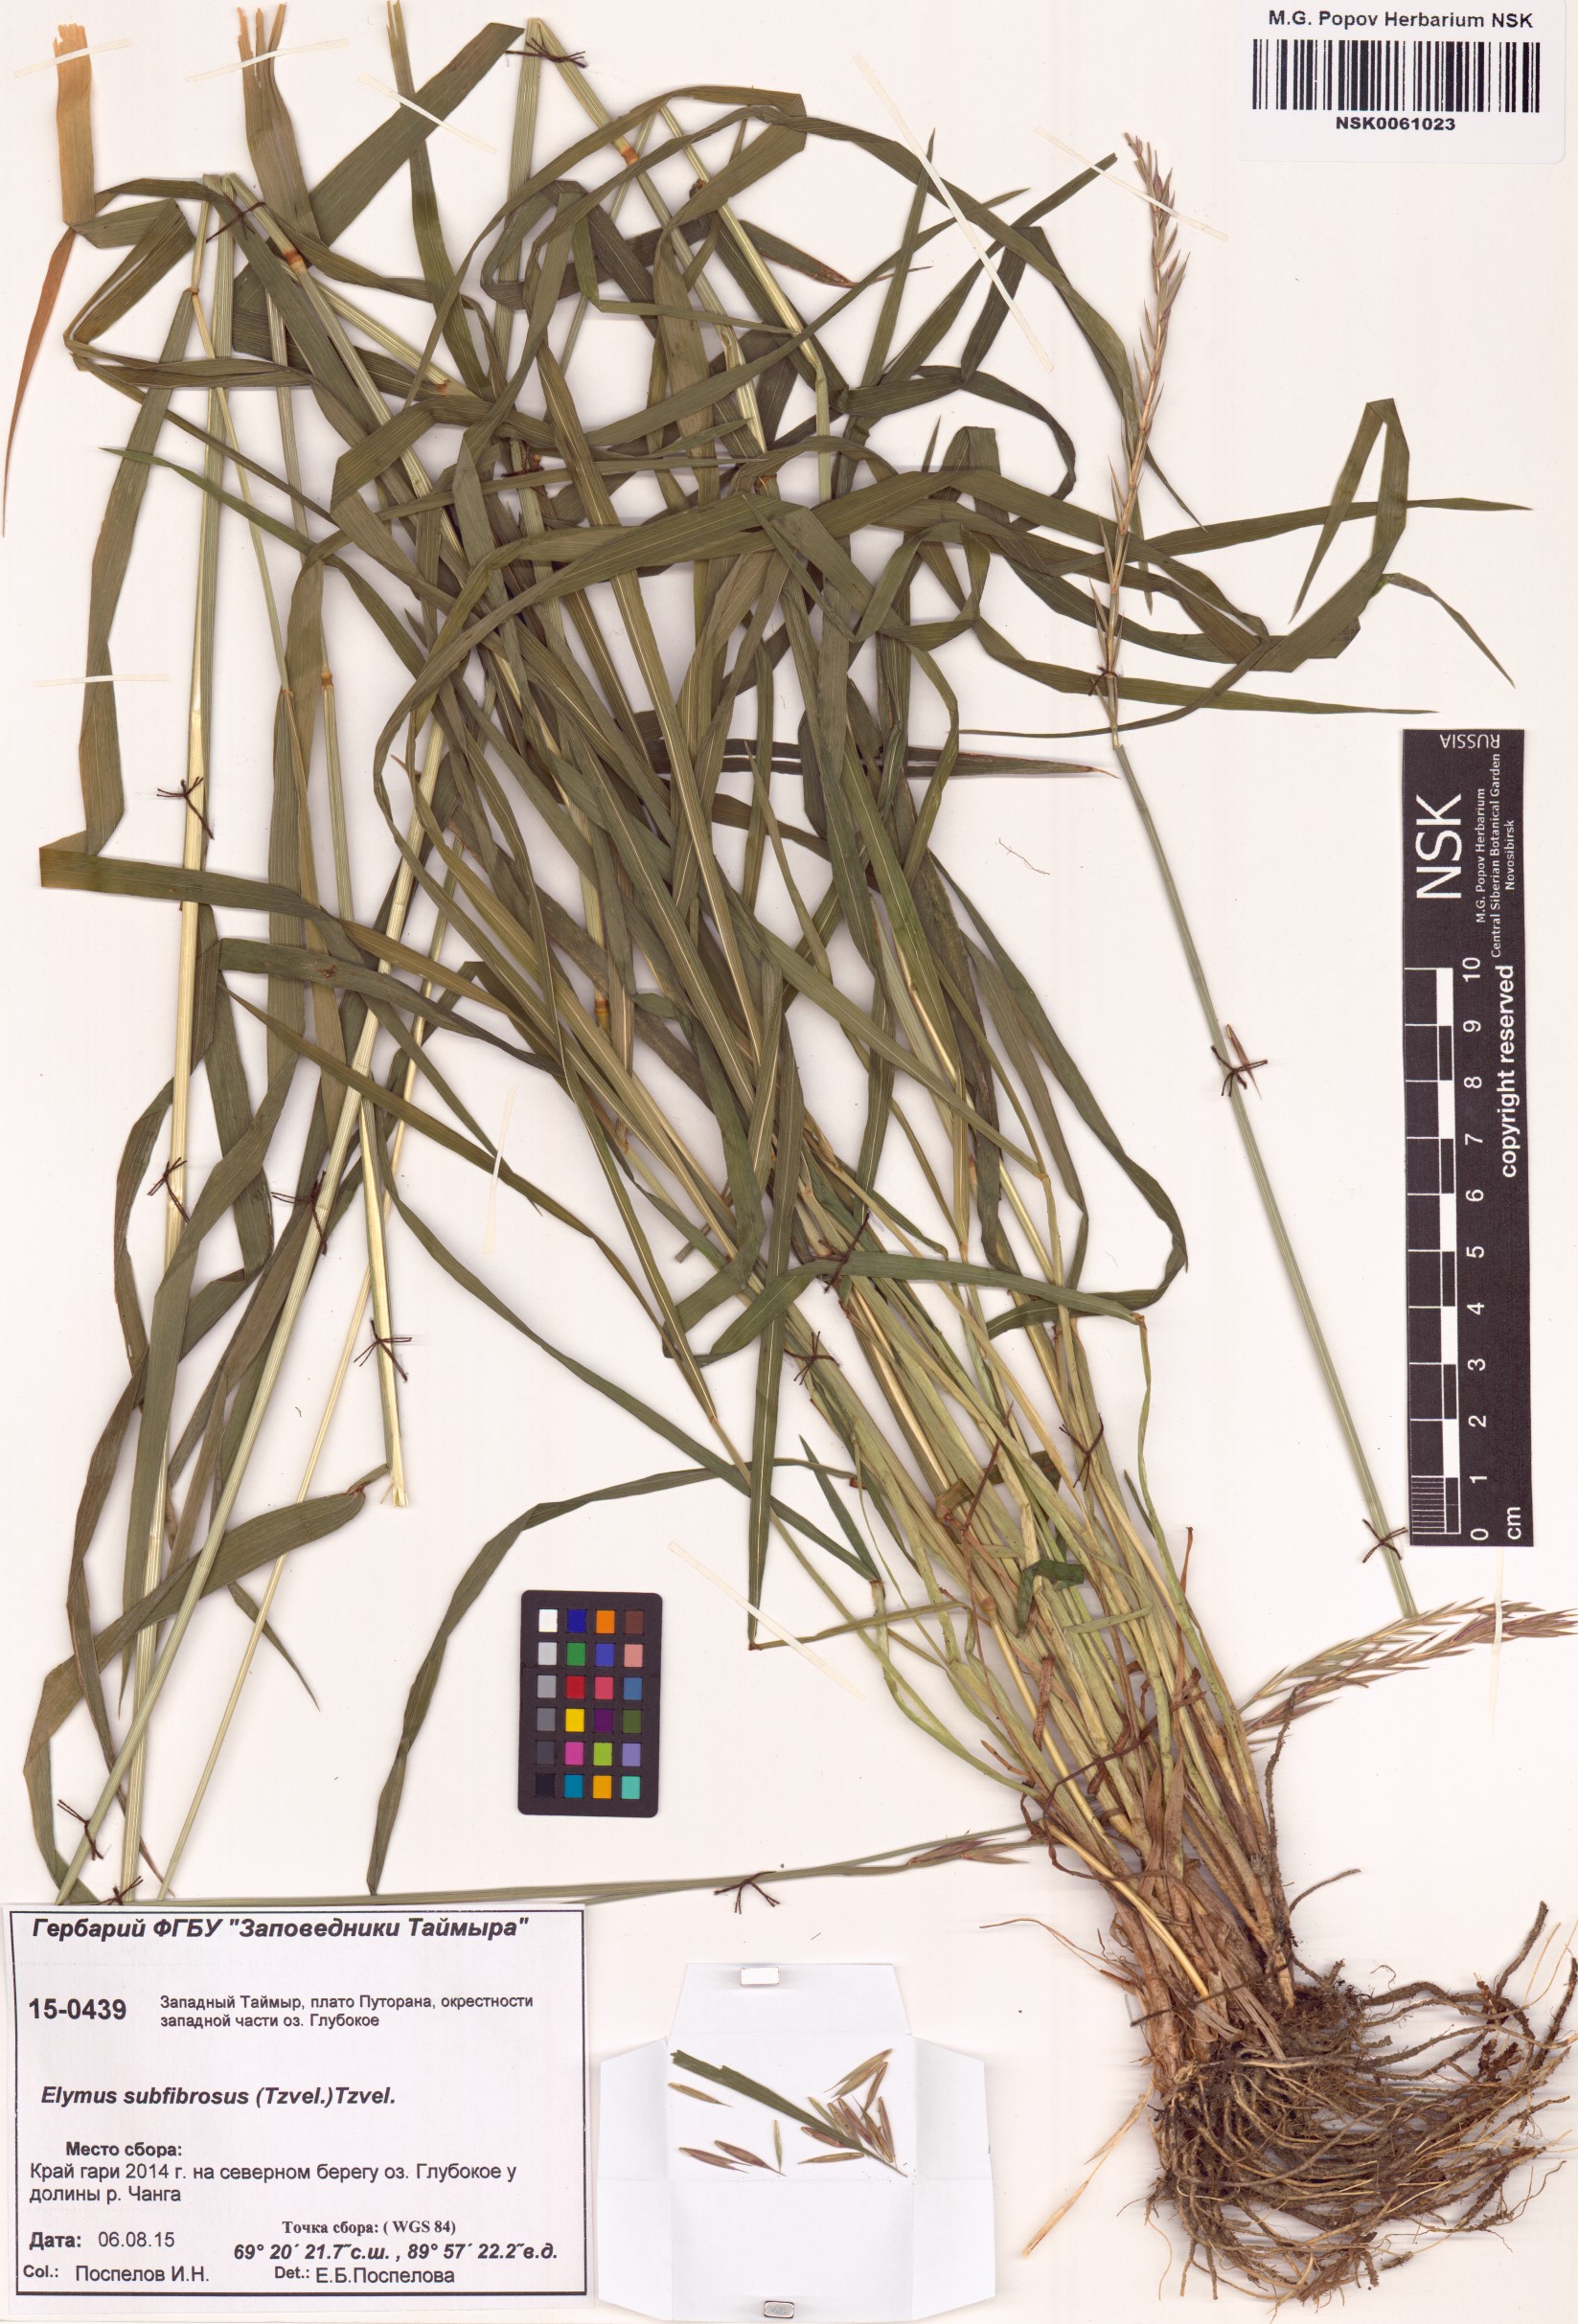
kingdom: Plantae
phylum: Tracheophyta
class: Liliopsida
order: Poales
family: Poaceae
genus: Elymus
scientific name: Elymus fibrosus
